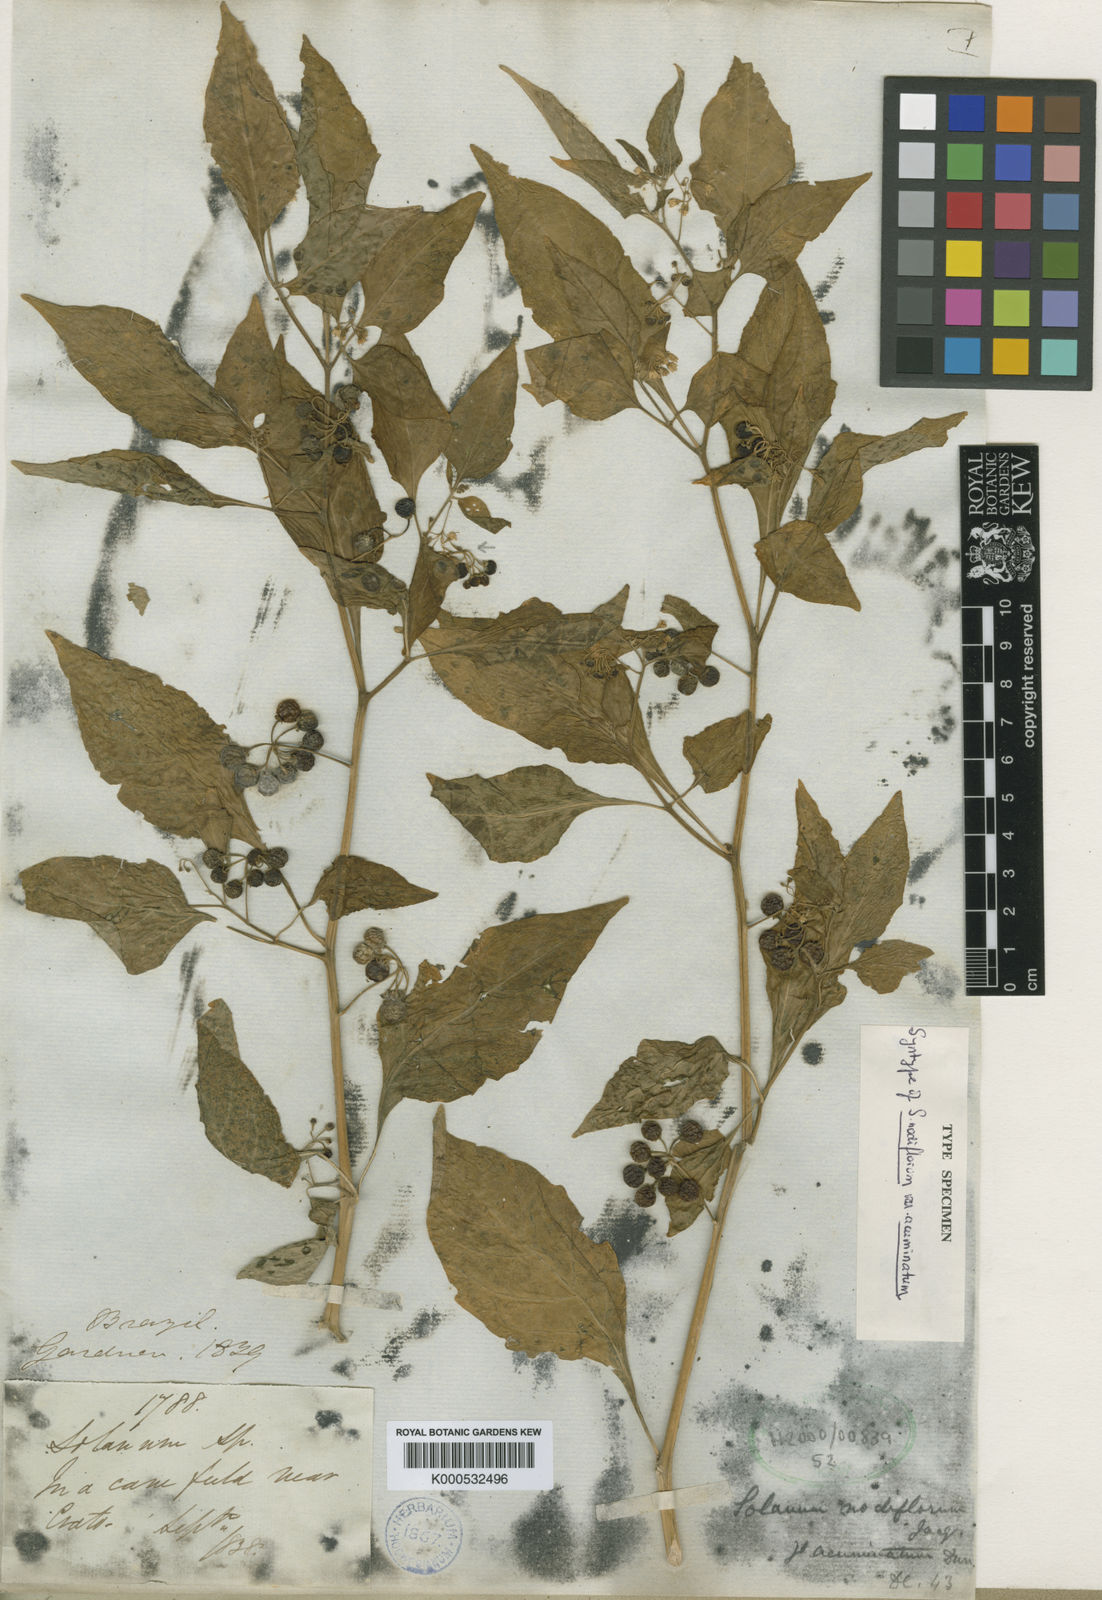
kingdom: Plantae
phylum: Tracheophyta
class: Magnoliopsida
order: Solanales
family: Solanaceae
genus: Solanum
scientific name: Solanum americanum
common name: American black nightshade
